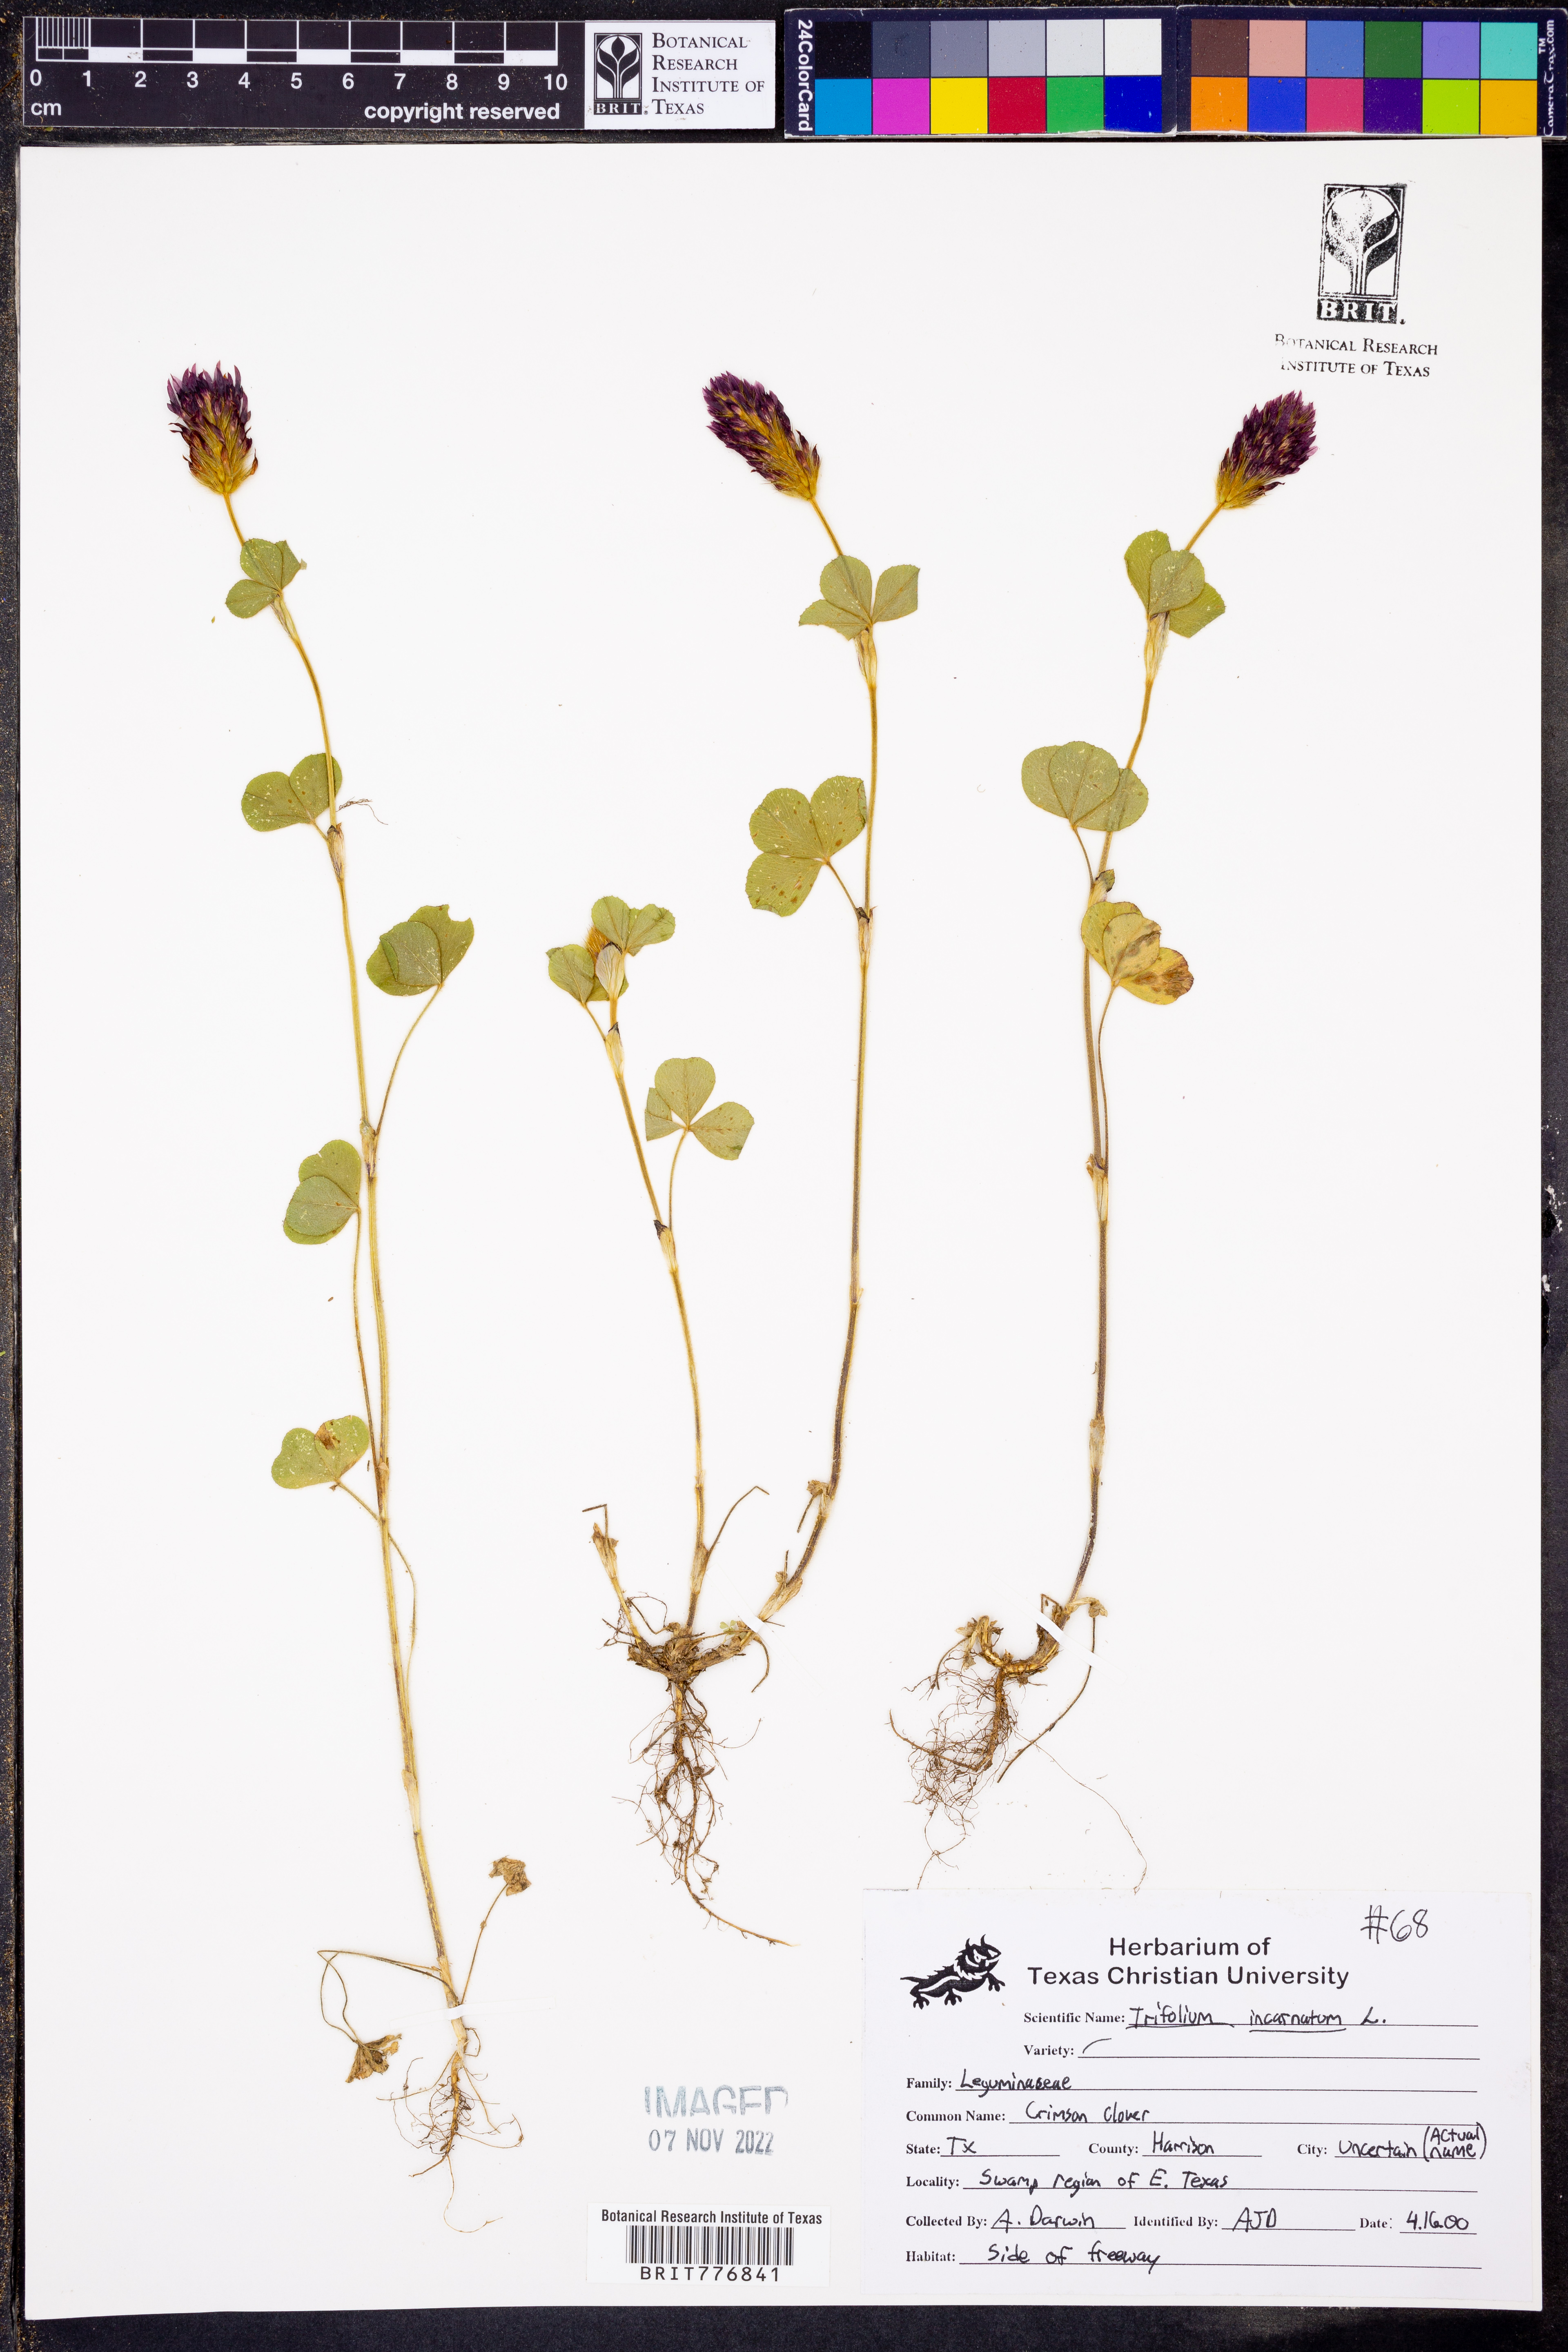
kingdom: Plantae
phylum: Tracheophyta
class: Magnoliopsida
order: Fabales
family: Fabaceae
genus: Trifolium
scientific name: Trifolium incarnatum
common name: Crimson clover
